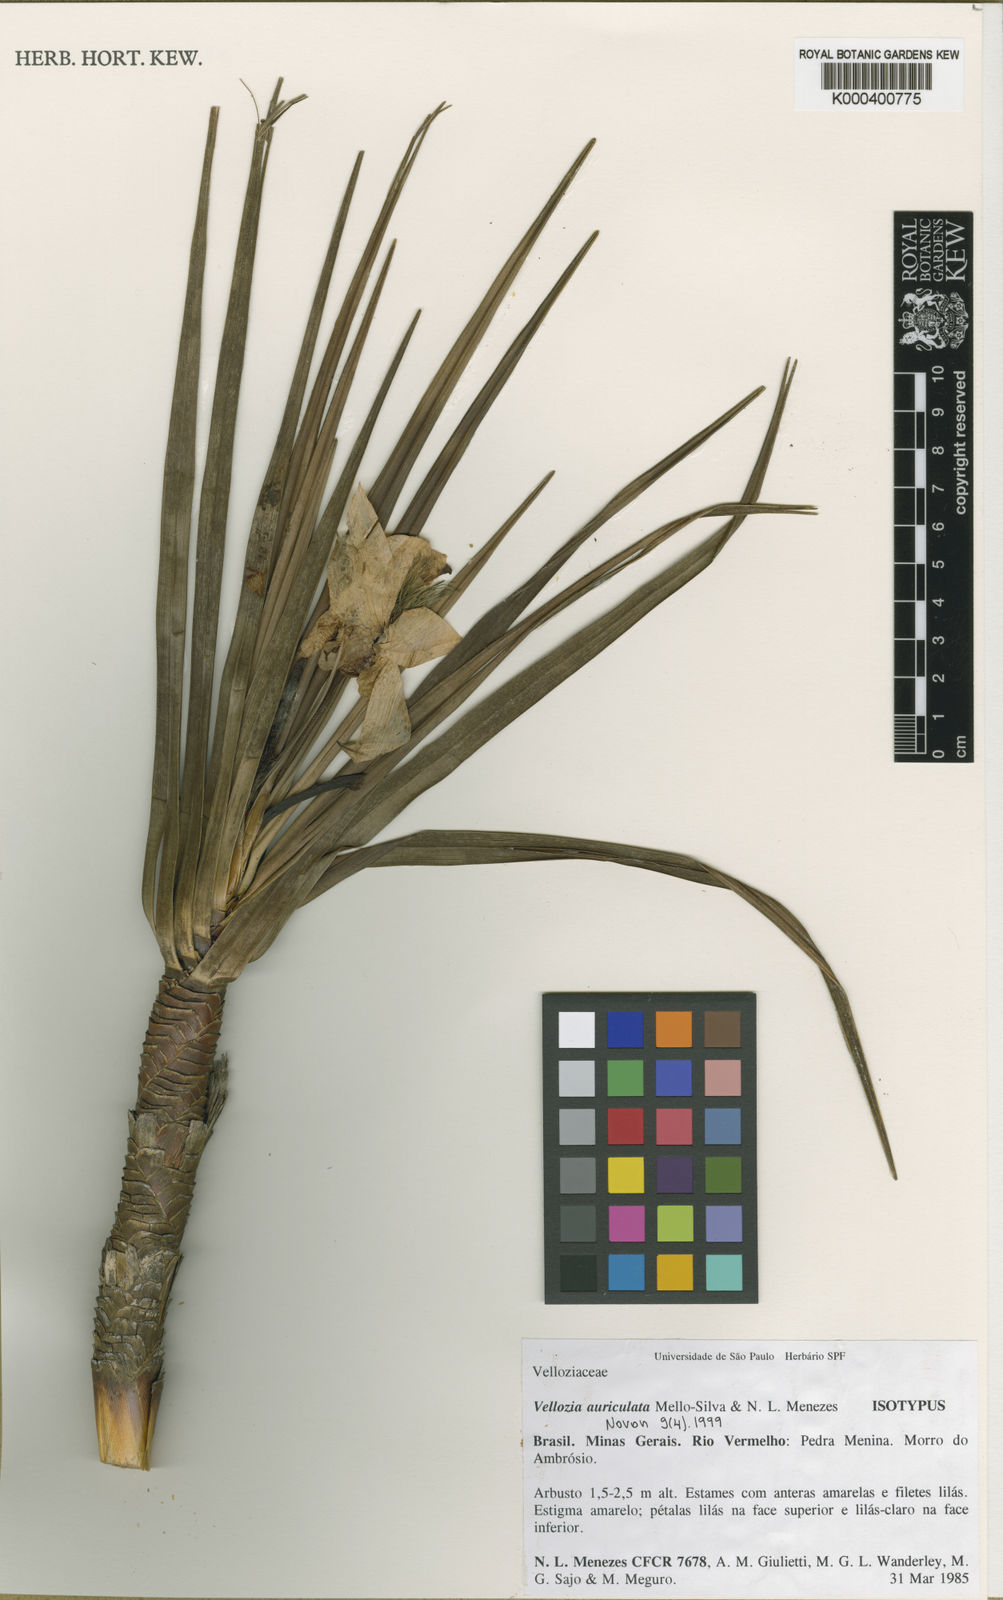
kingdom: Plantae
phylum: Tracheophyta
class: Liliopsida
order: Pandanales
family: Velloziaceae
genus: Vellozia
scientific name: Vellozia auriculata
